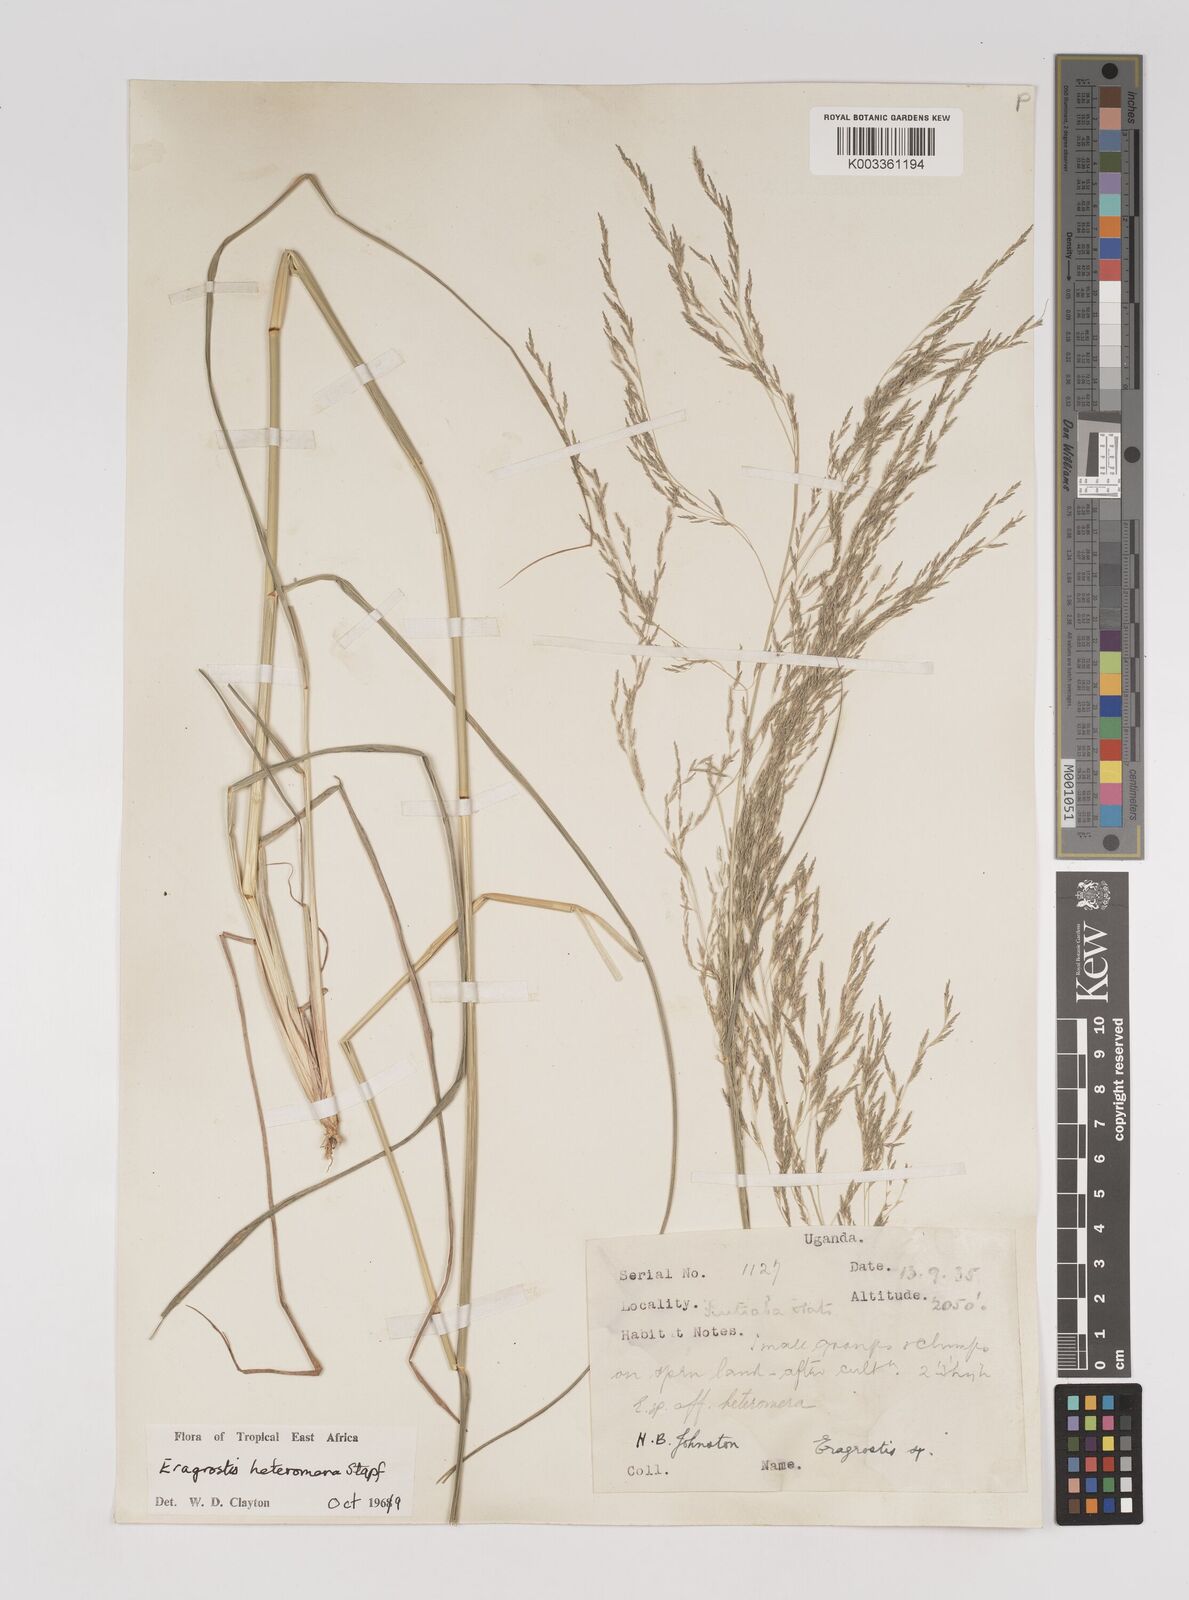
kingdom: Plantae
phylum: Tracheophyta
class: Liliopsida
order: Poales
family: Poaceae
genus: Eragrostis
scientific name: Eragrostis heteromera
